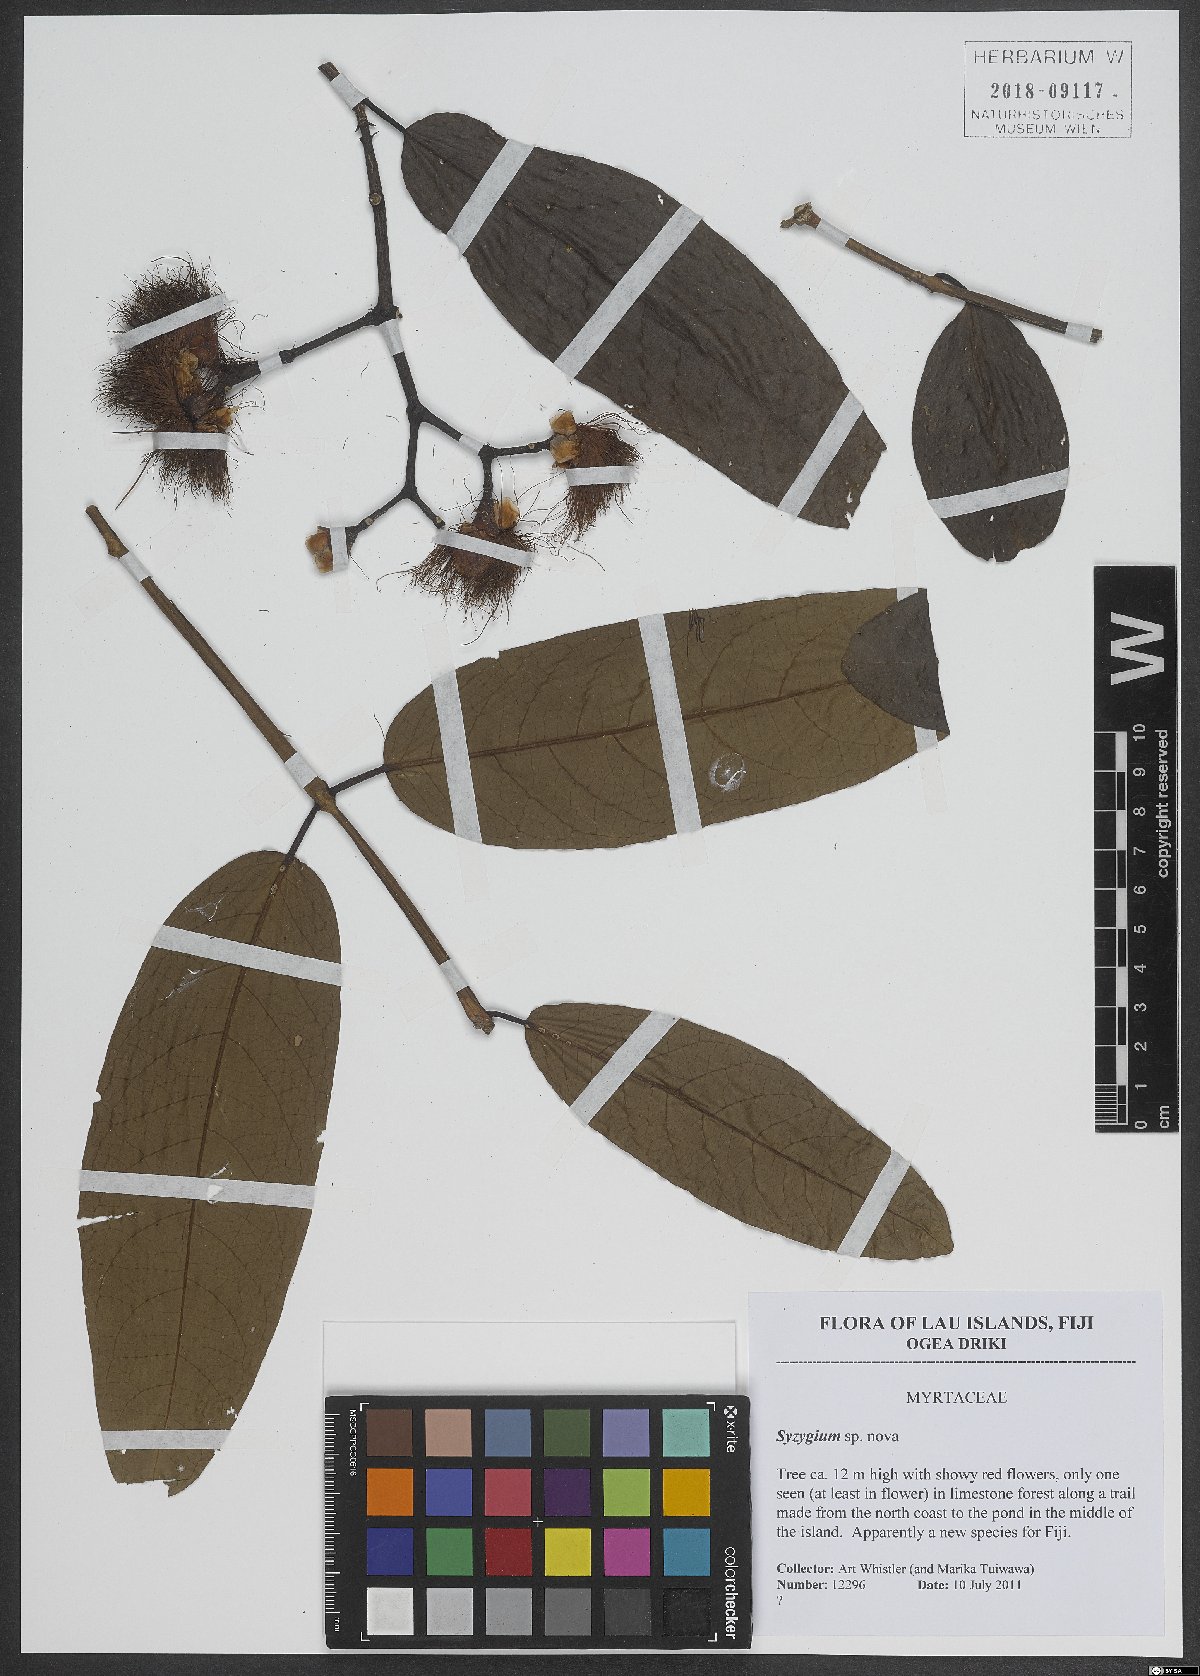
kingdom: Plantae
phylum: Tracheophyta
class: Magnoliopsida
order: Myrtales
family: Myrtaceae
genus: Syzygium
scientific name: Syzygium
